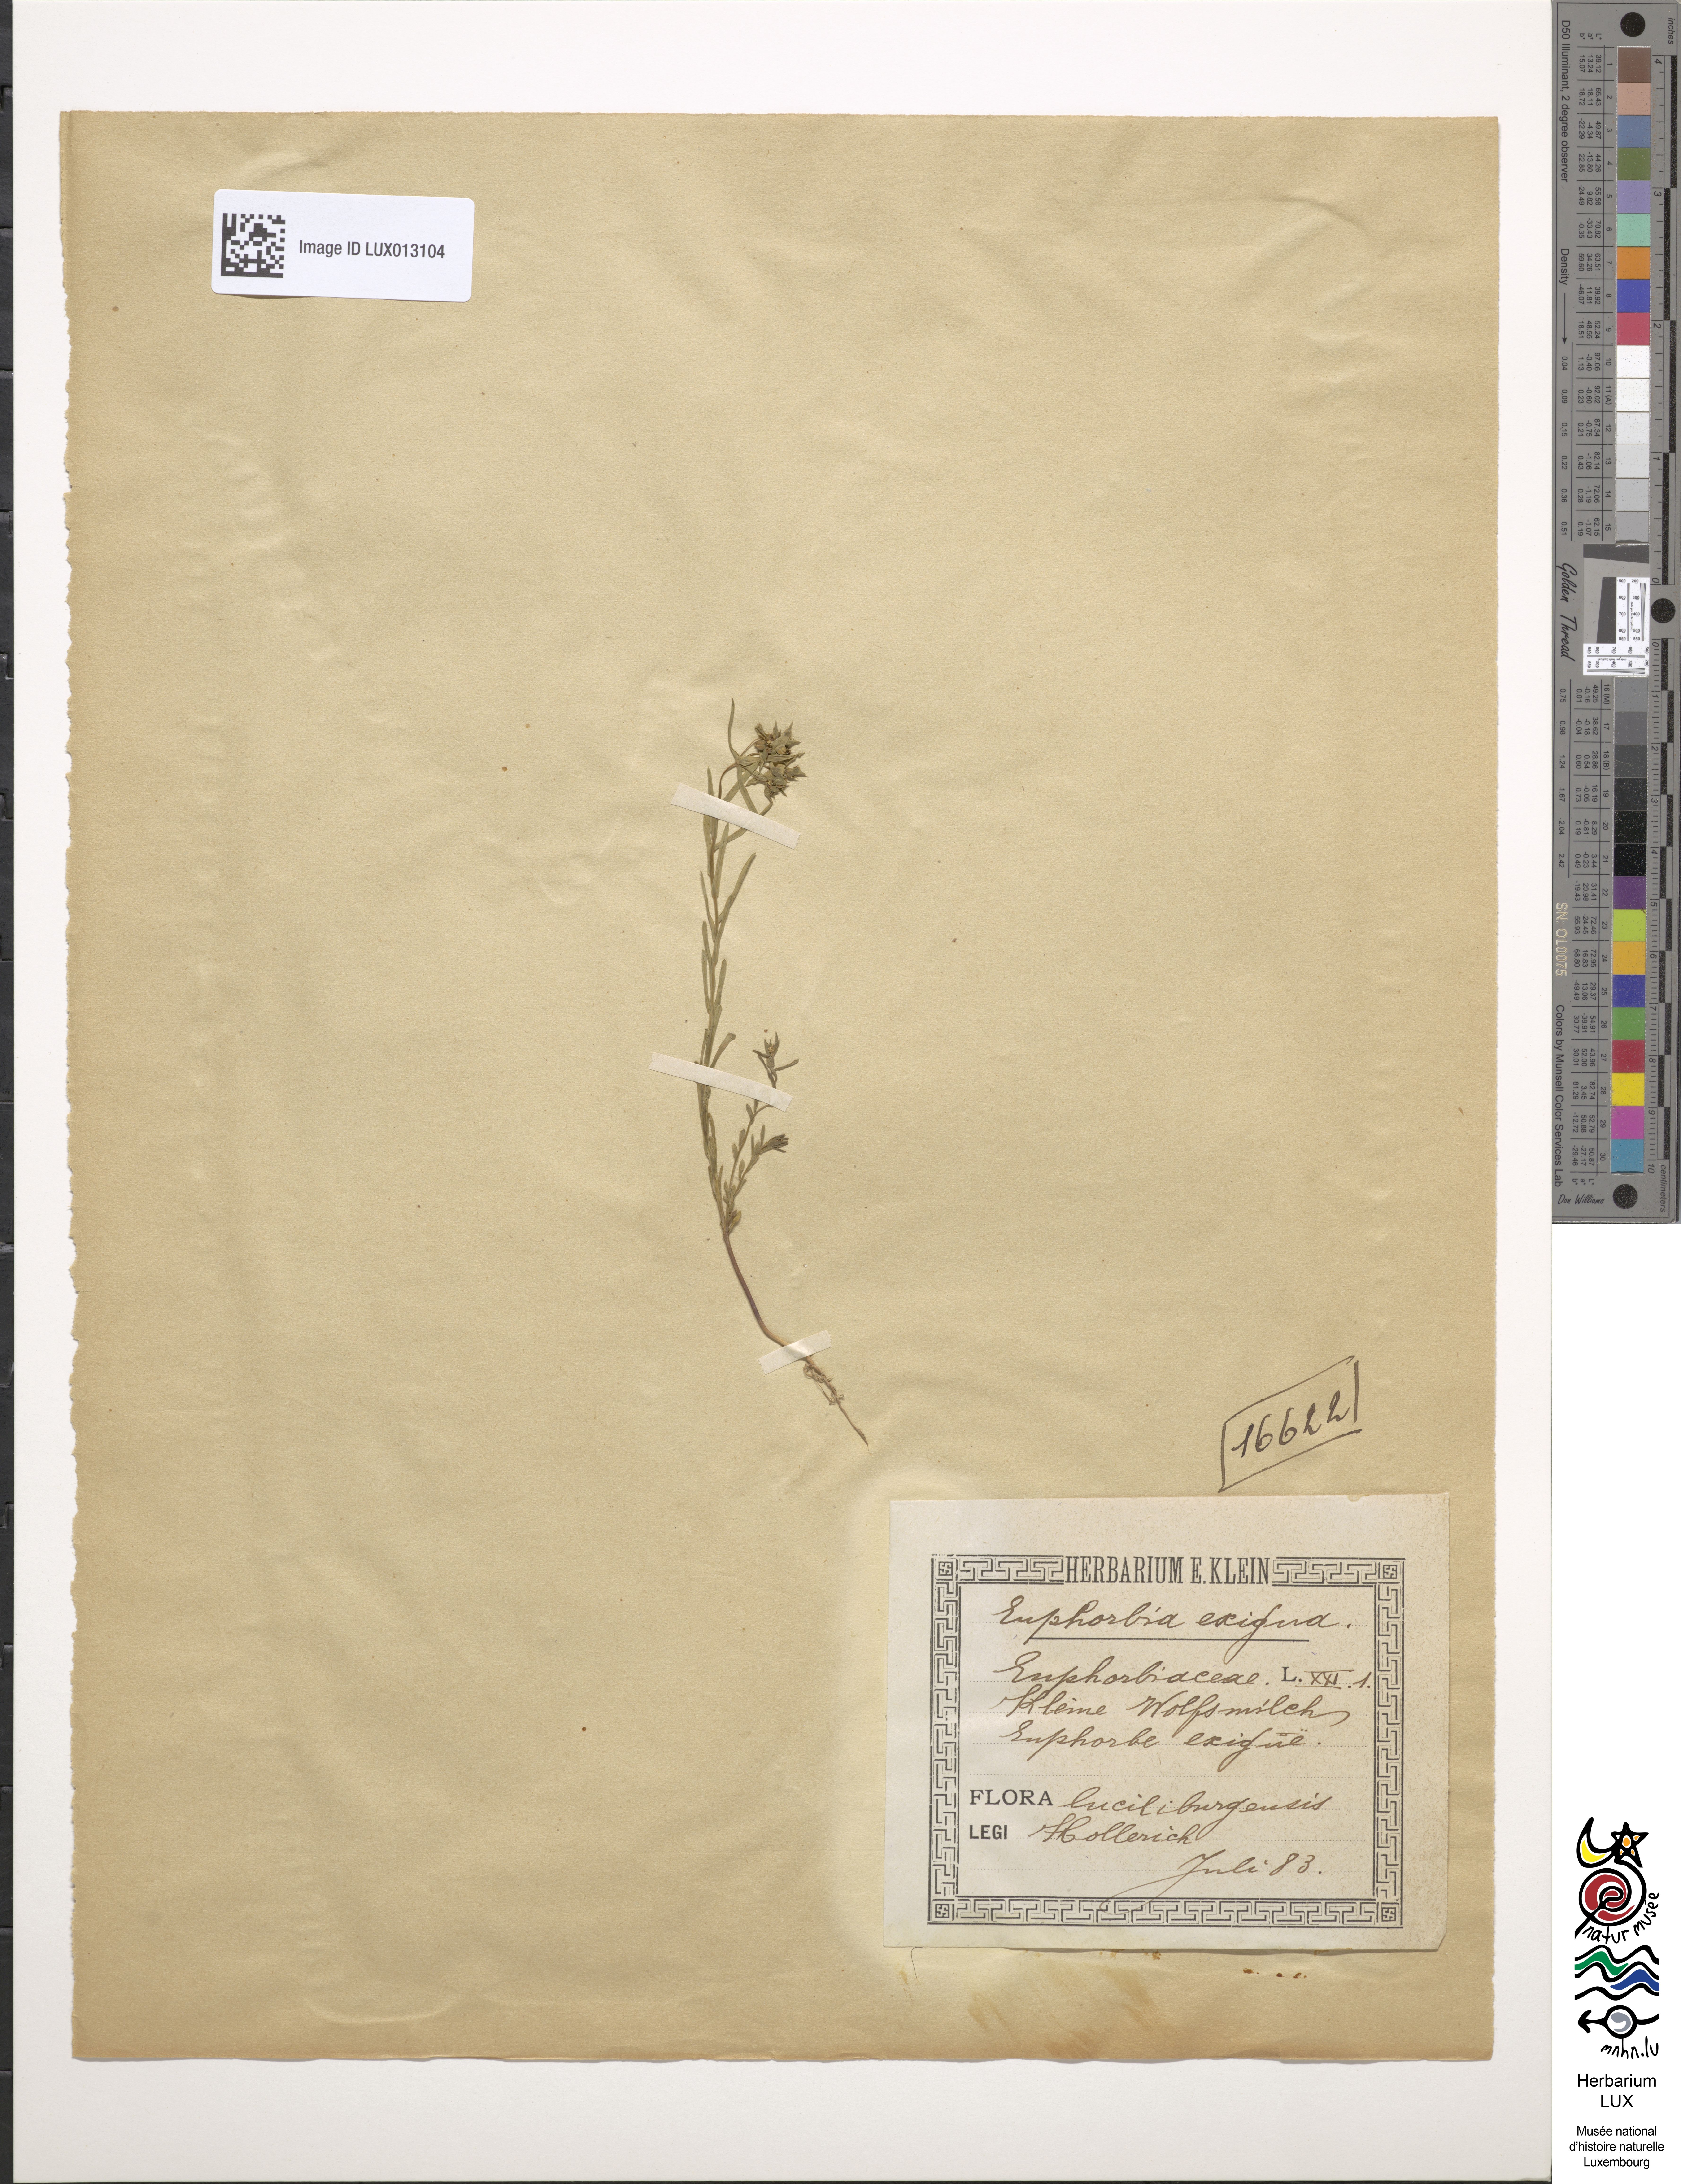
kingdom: Plantae
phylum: Tracheophyta
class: Magnoliopsida
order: Malpighiales
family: Euphorbiaceae
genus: Euphorbia
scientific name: Euphorbia exigua
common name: Dwarf spurge
